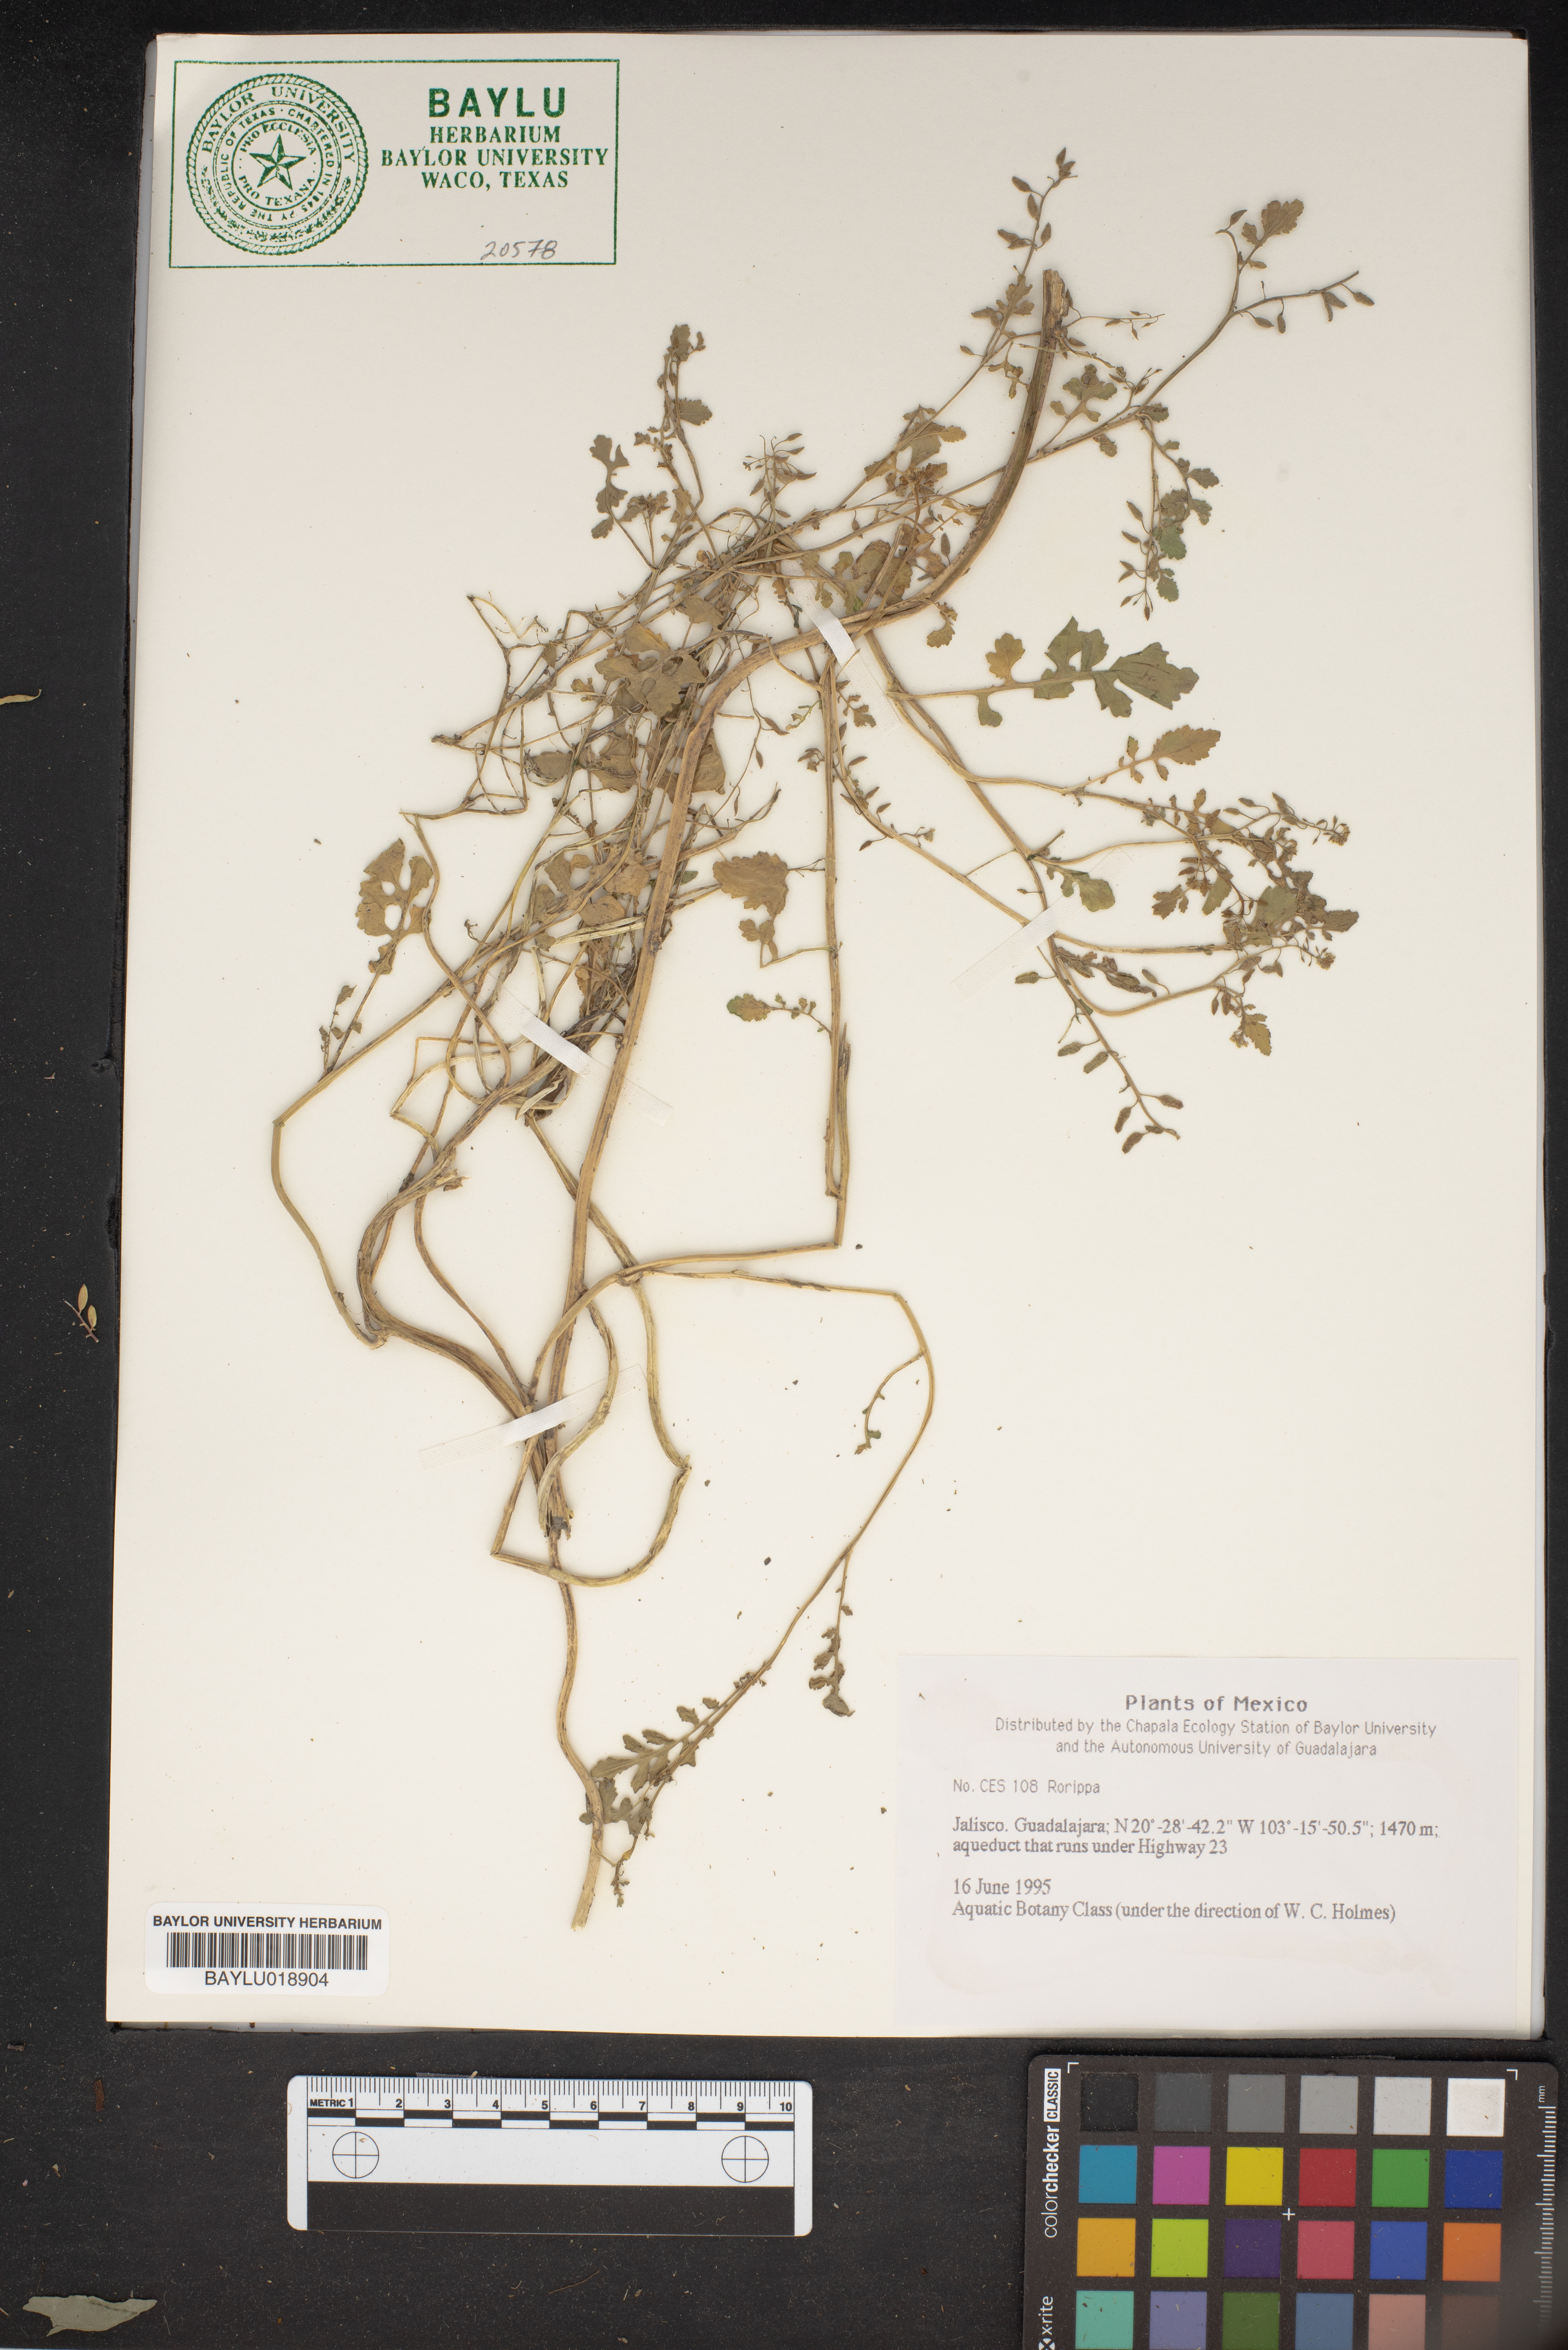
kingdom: Plantae
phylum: Tracheophyta
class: Magnoliopsida
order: Brassicales
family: Brassicaceae
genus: Rorippa
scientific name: Rorippa
